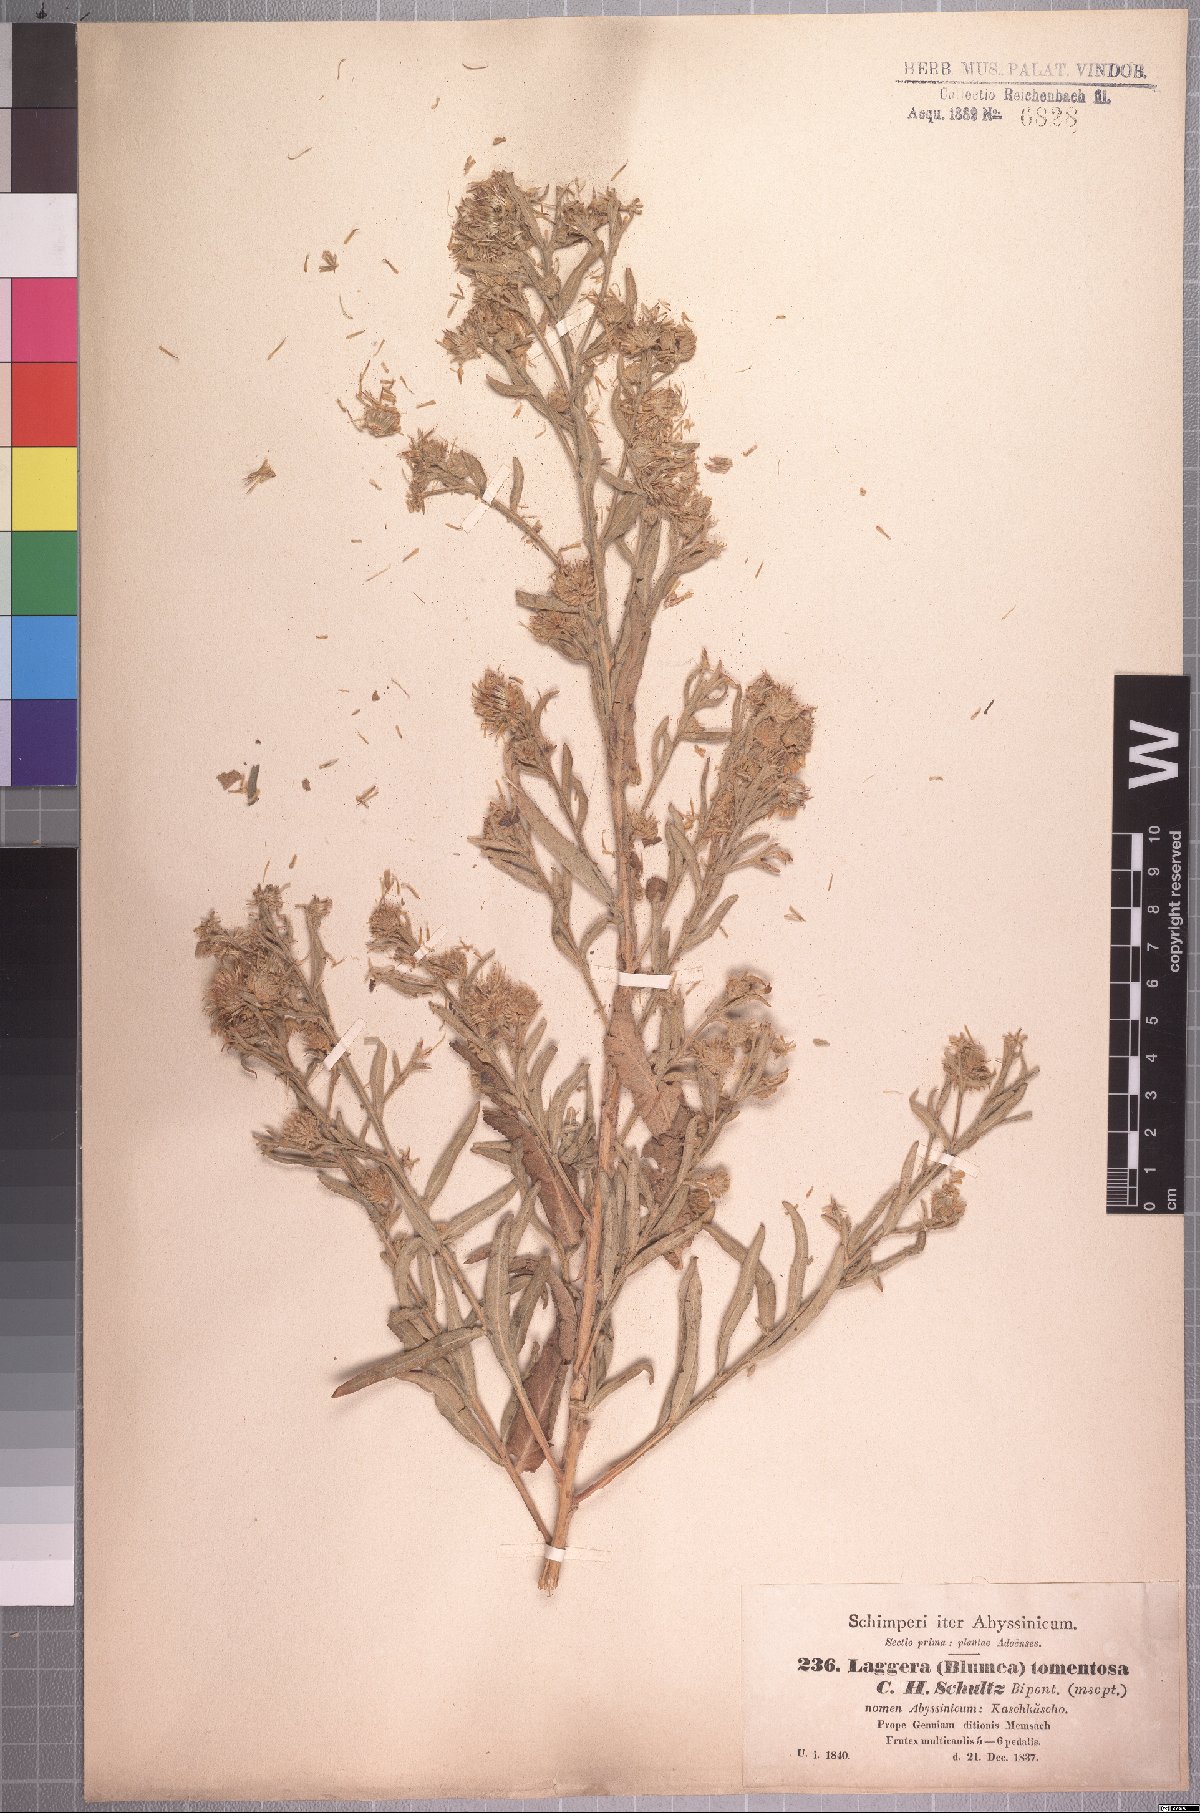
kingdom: Plantae
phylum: Tracheophyta
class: Magnoliopsida
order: Asterales
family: Asteraceae
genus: Laggera
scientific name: Laggera tomentosa
